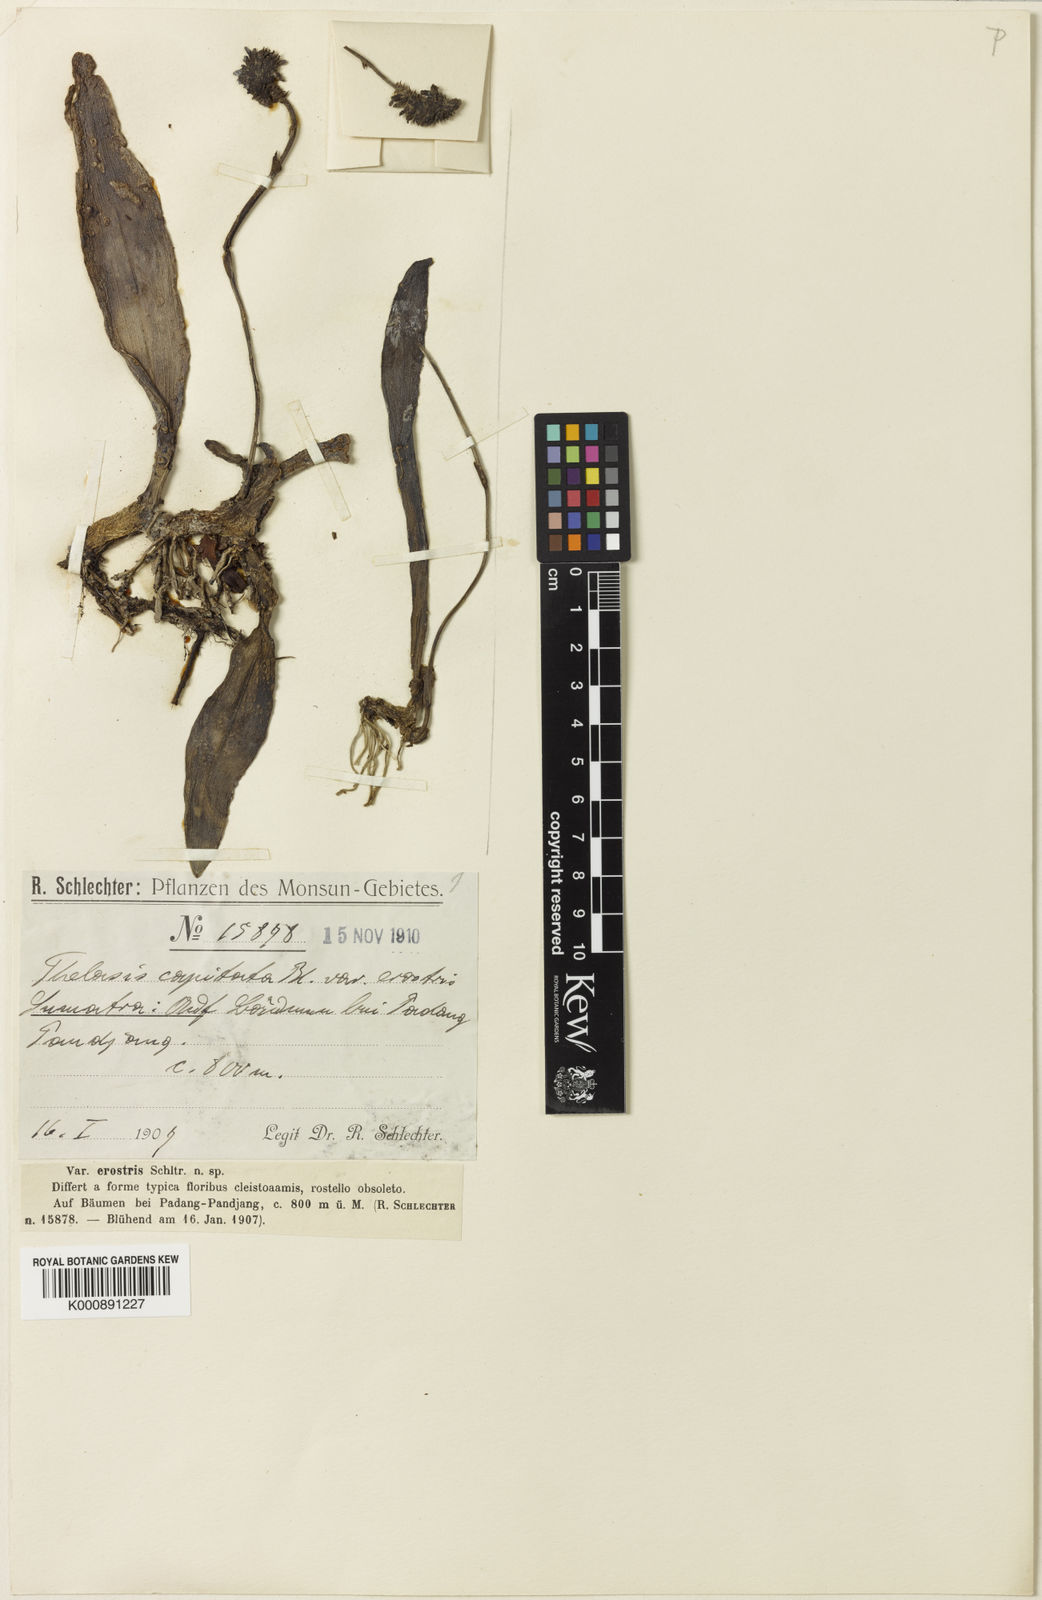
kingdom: Plantae
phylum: Tracheophyta
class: Liliopsida
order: Asparagales
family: Orchidaceae
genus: Thelasis
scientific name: Thelasis capitata
